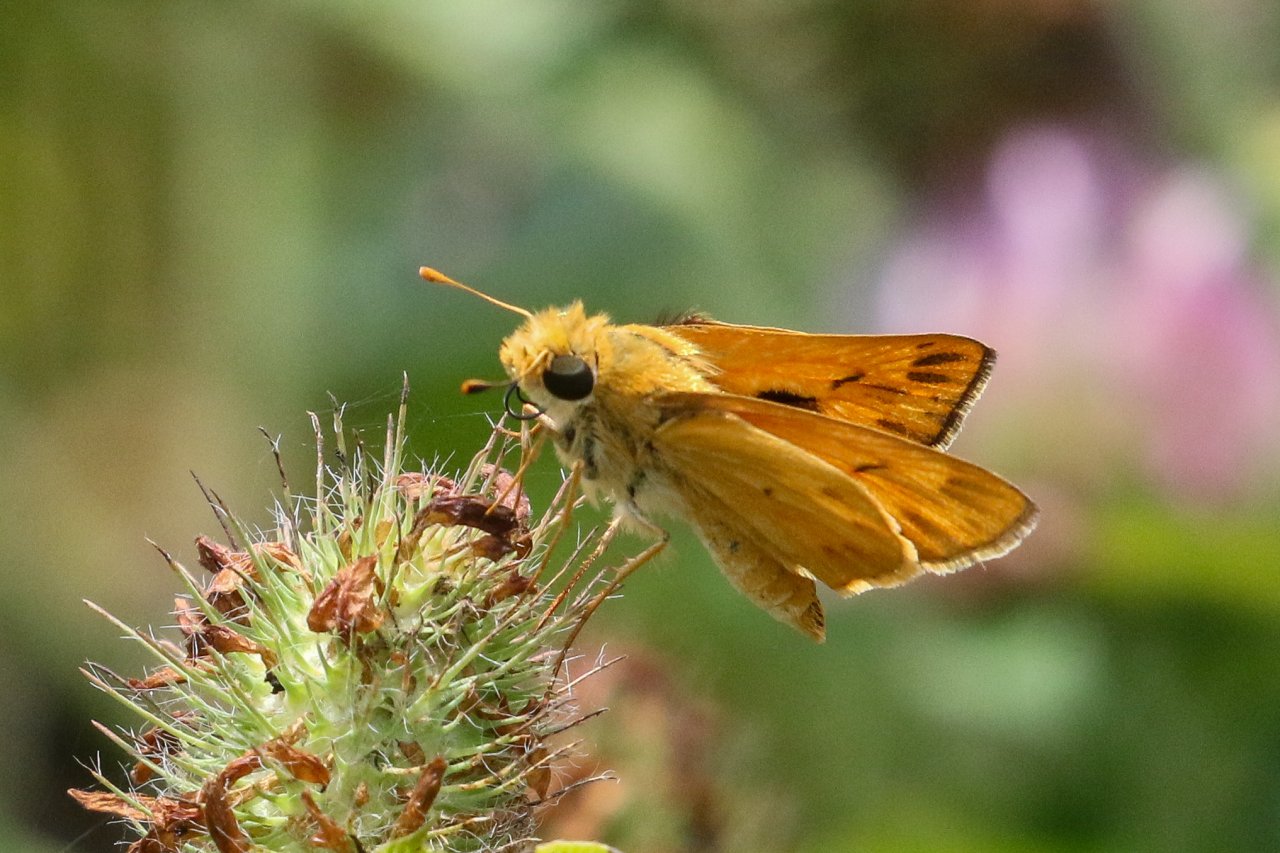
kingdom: Animalia
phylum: Arthropoda
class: Insecta
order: Lepidoptera
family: Hesperiidae
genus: Hylephila
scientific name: Hylephila phyleus
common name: Fiery Skipper
